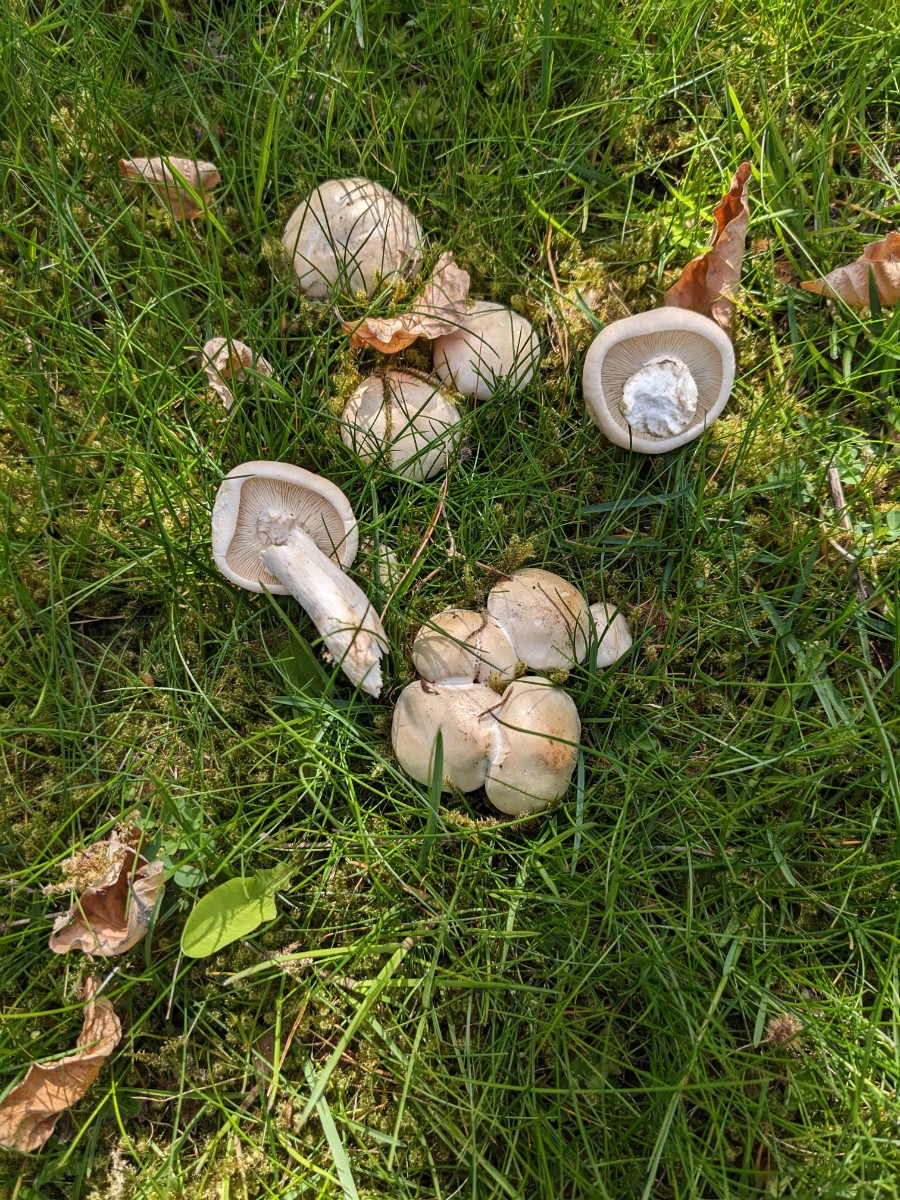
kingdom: Fungi
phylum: Basidiomycota
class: Agaricomycetes
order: Agaricales
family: Lyophyllaceae
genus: Calocybe
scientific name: Calocybe gambosa
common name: vårmusseron
